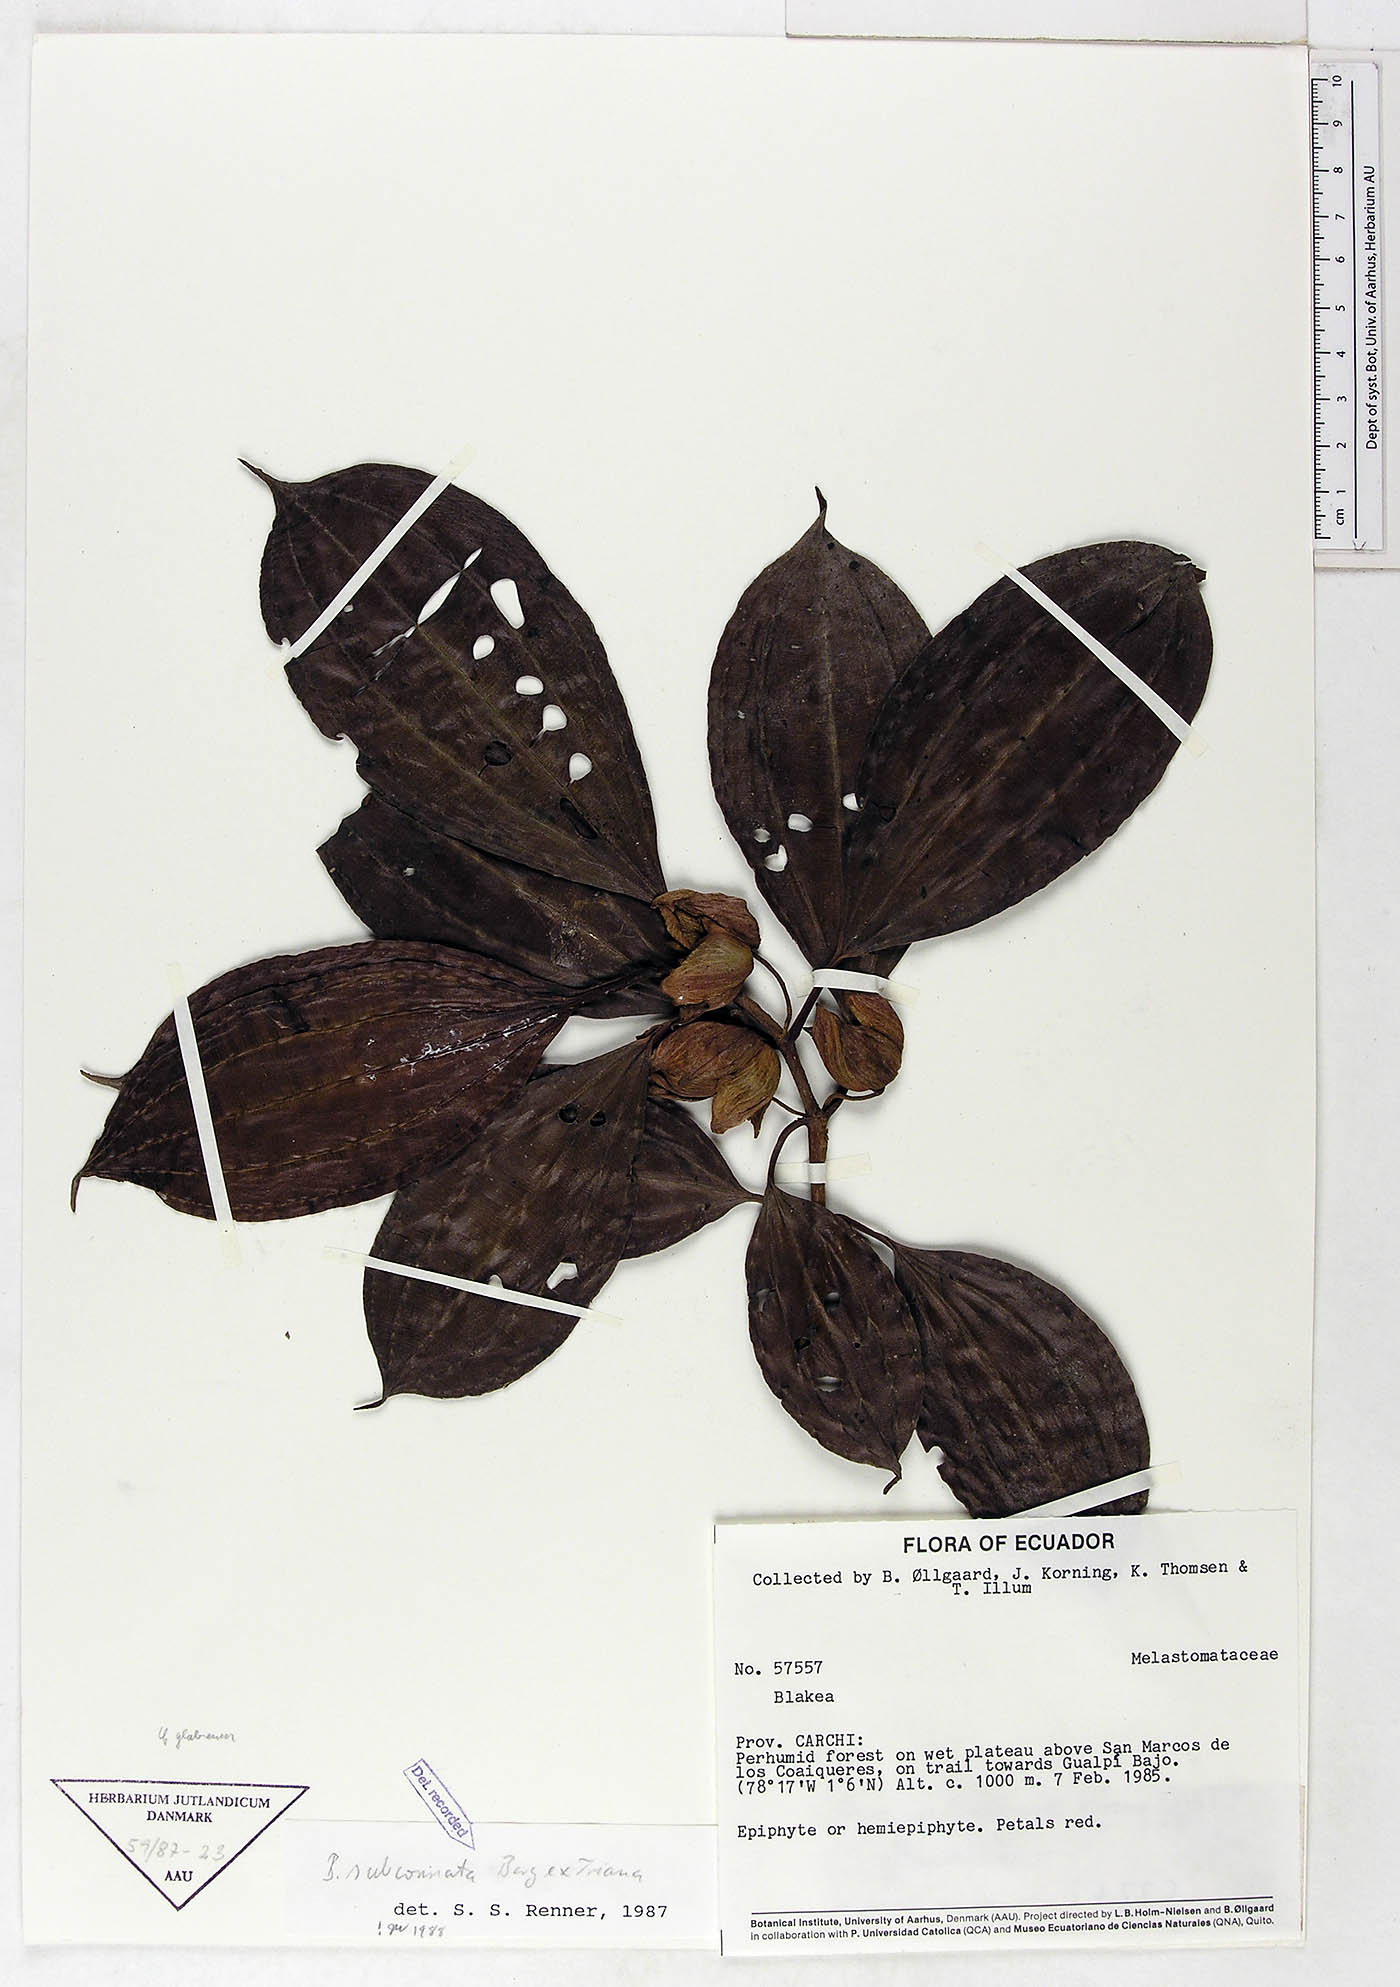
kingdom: Plantae
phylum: Tracheophyta
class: Magnoliopsida
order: Myrtales
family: Melastomataceae
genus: Blakea
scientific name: Blakea subconnata
